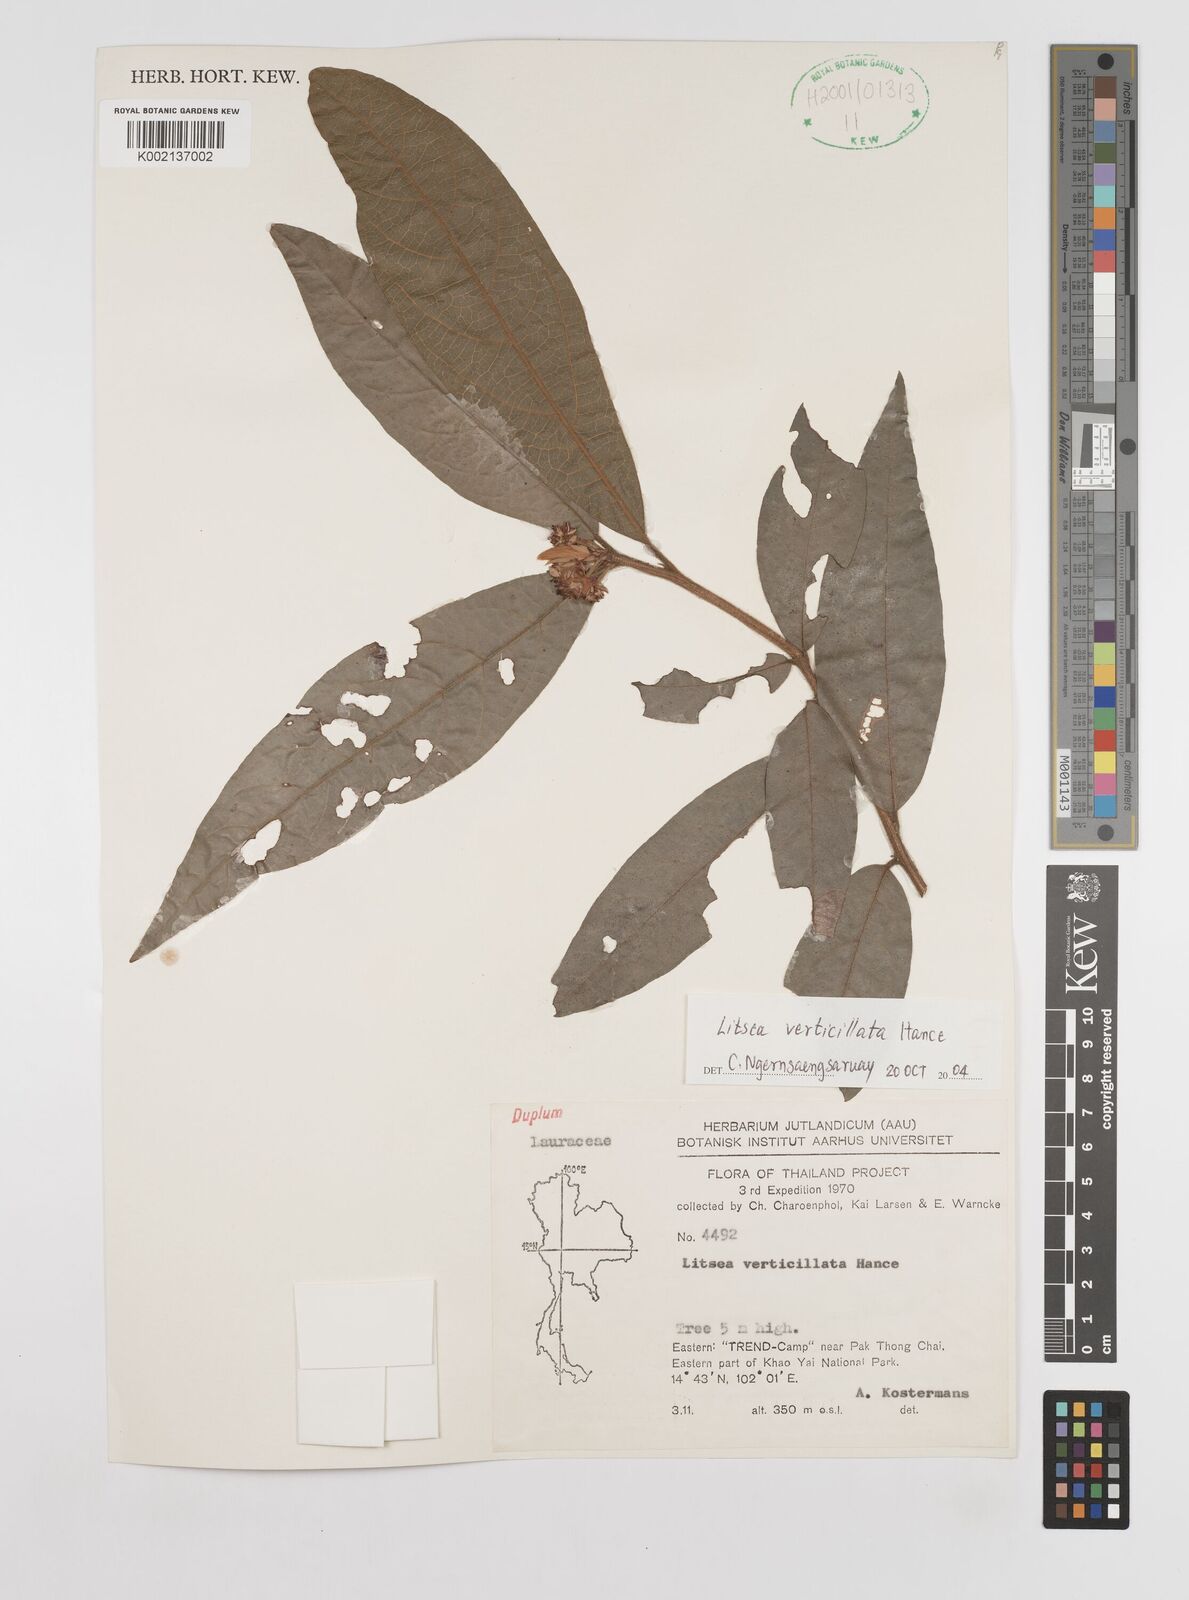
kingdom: Plantae
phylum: Tracheophyta
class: Magnoliopsida
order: Laurales
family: Lauraceae
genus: Litsea
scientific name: Litsea verticillata
